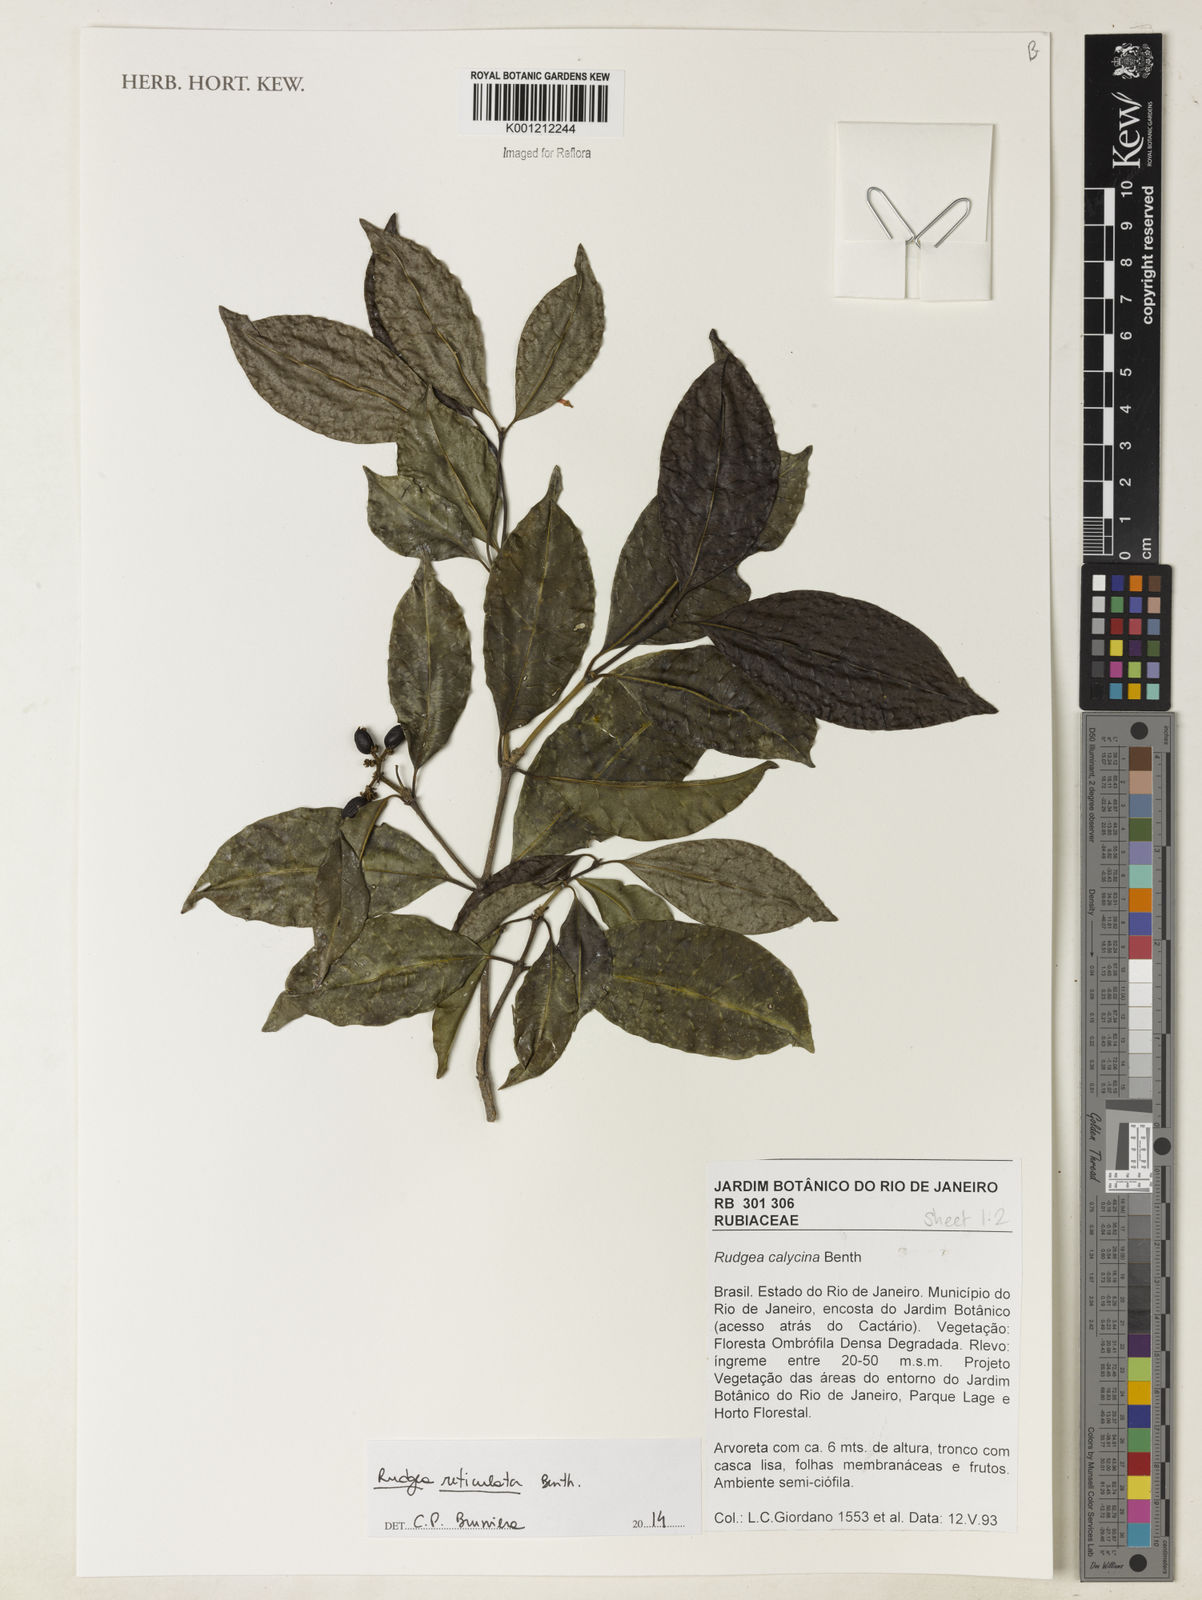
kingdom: Plantae
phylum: Tracheophyta
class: Magnoliopsida
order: Gentianales
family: Rubiaceae
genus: Rudgea
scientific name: Rudgea reticulata
